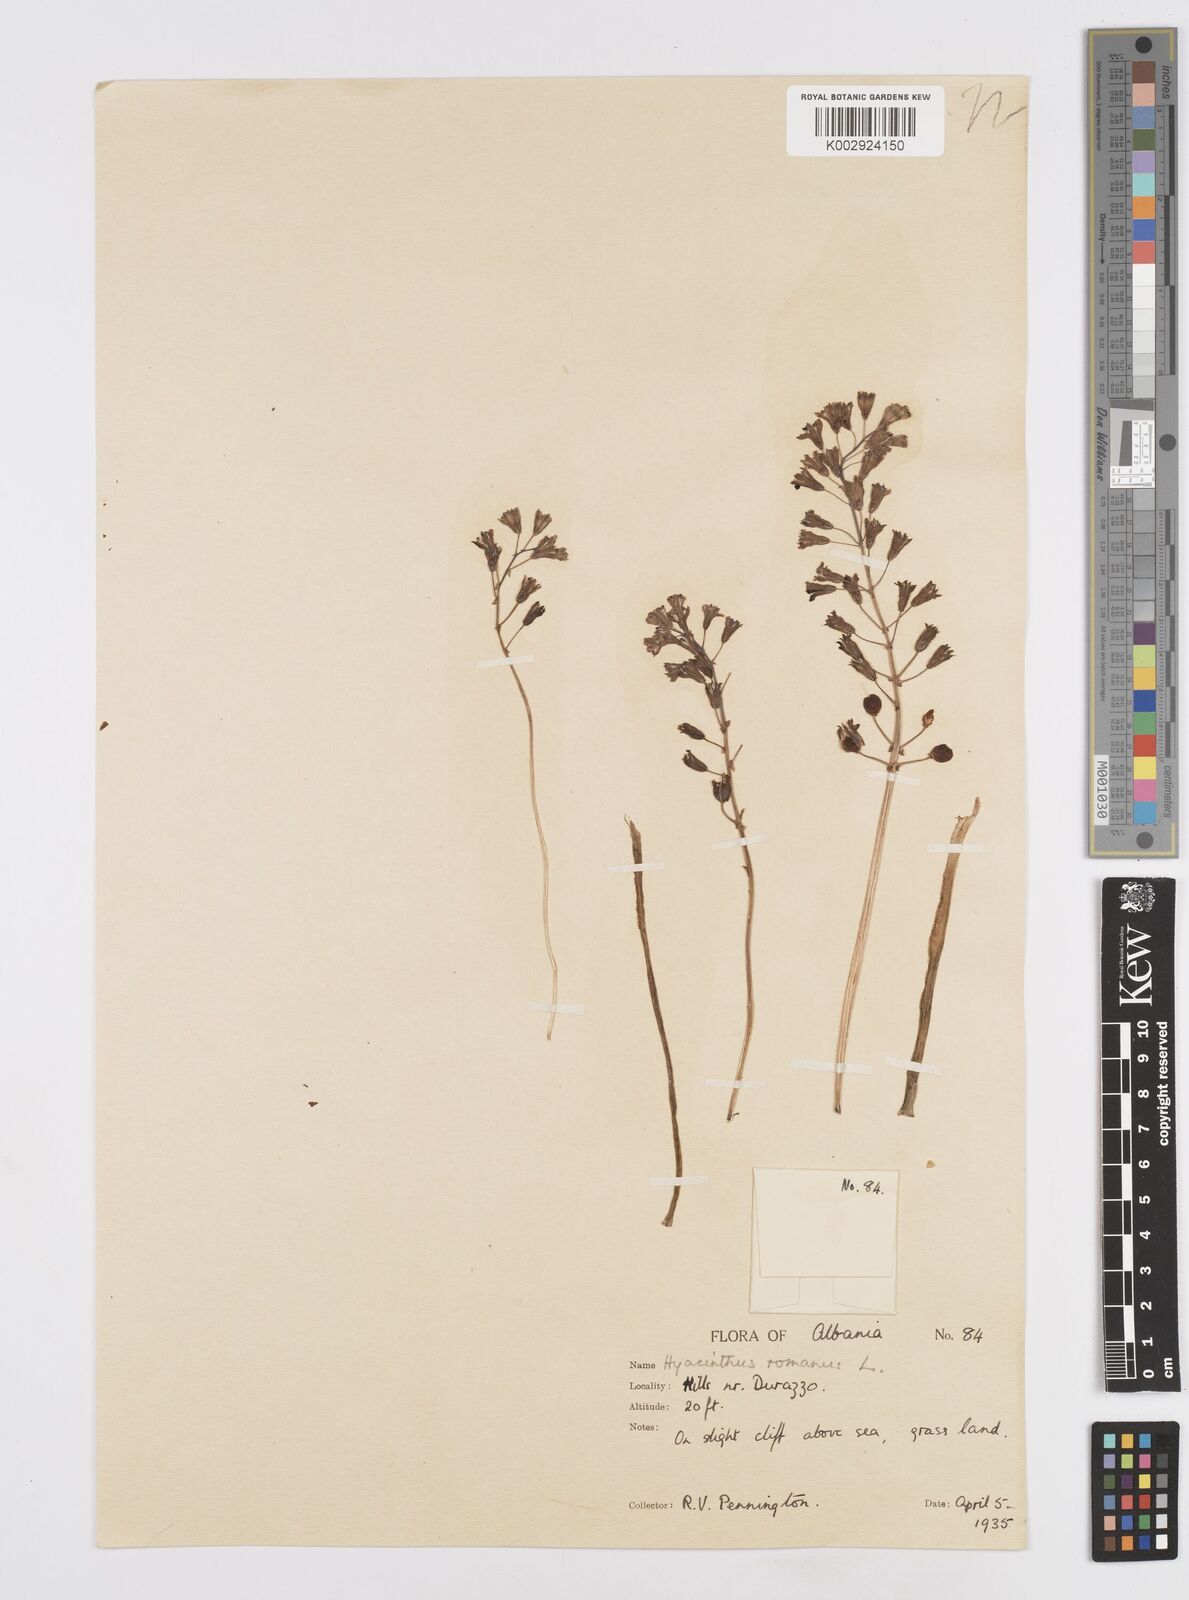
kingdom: Plantae
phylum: Tracheophyta
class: Liliopsida
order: Asparagales
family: Asparagaceae
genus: Bellevalia
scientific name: Bellevalia
